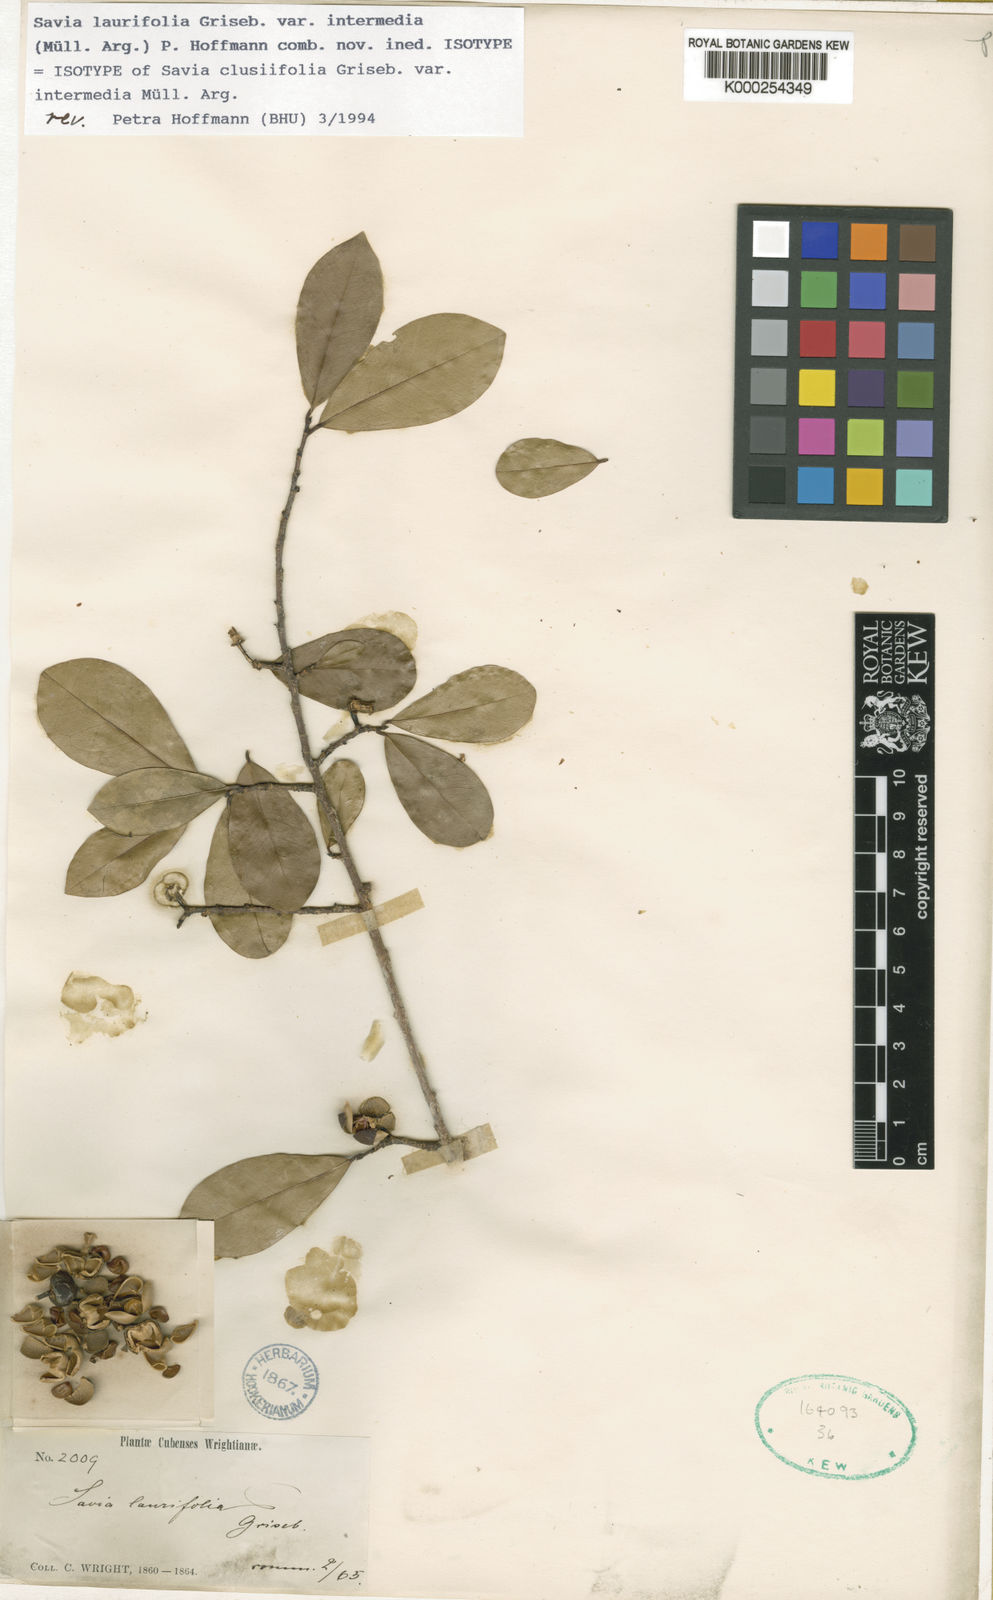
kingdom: Plantae
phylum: Tracheophyta
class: Magnoliopsida
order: Malpighiales
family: Phyllanthaceae
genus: Heterosavia
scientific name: Heterosavia laurifolia
